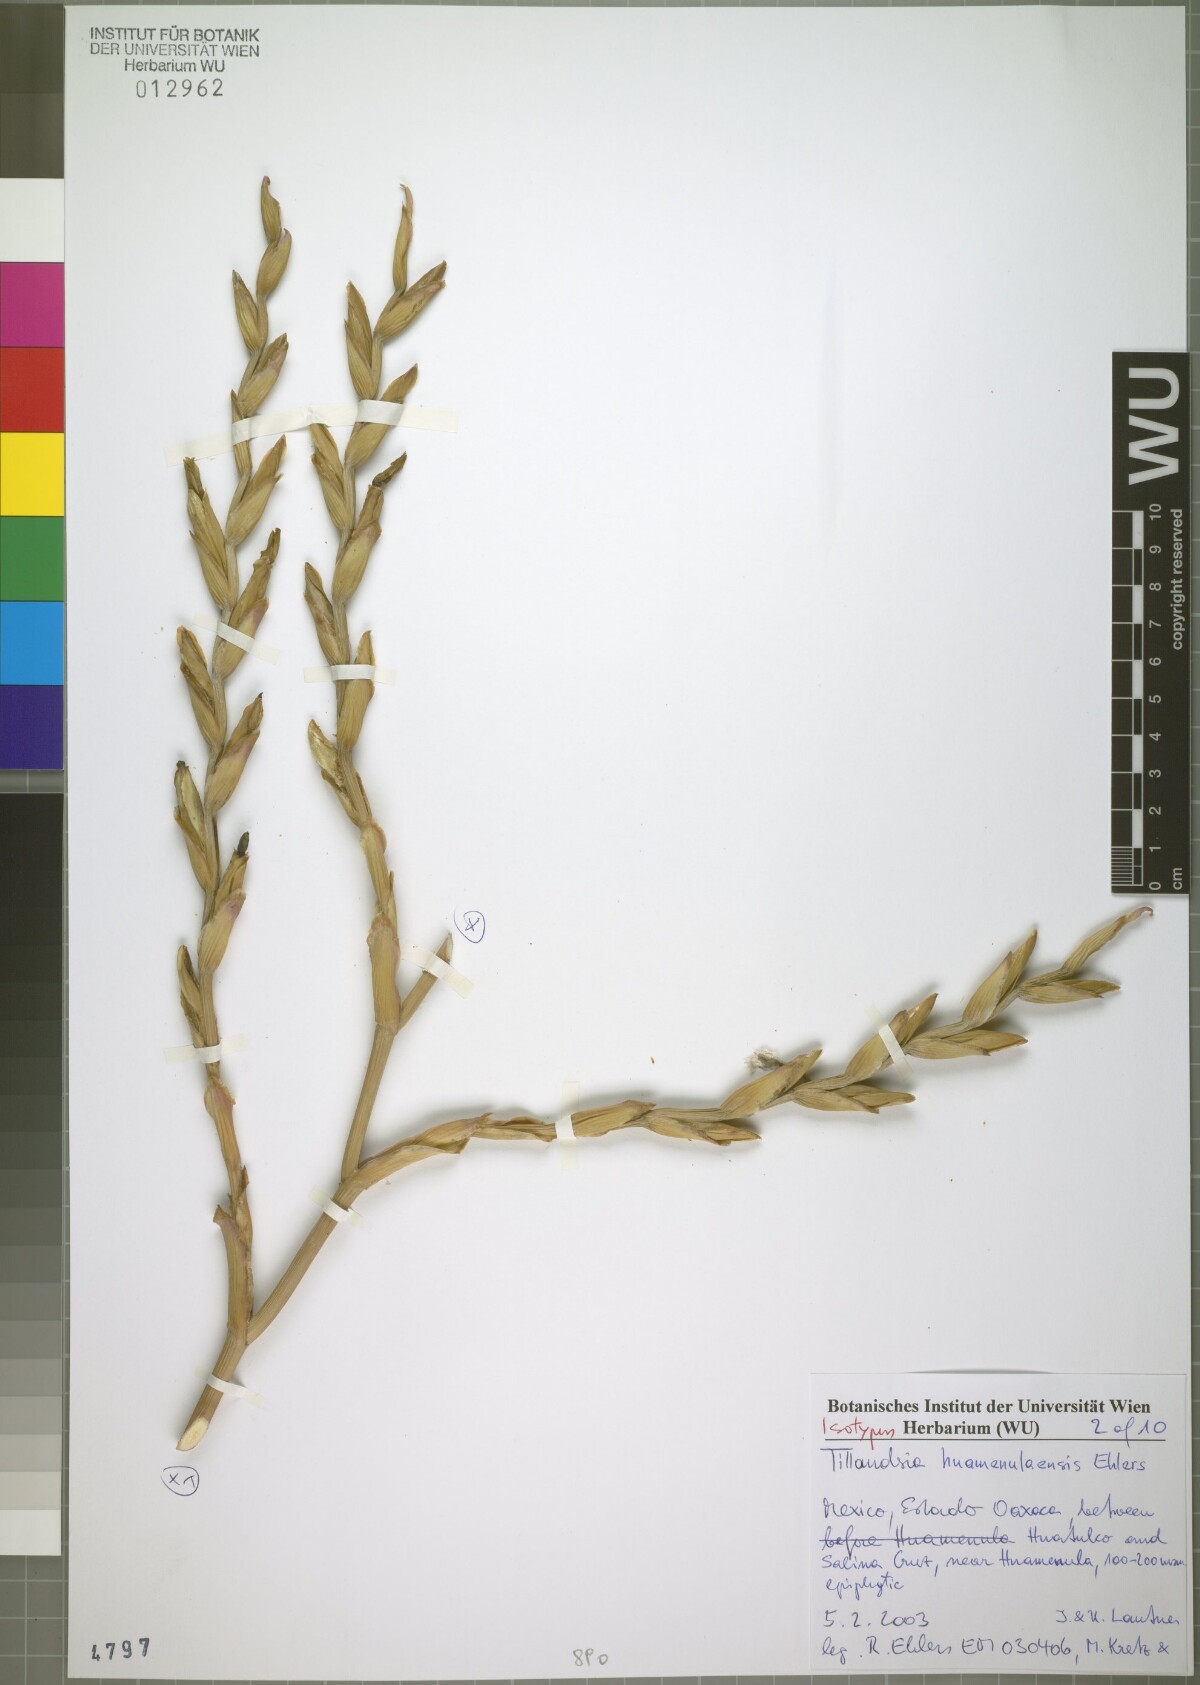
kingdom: Plantae
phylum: Tracheophyta
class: Liliopsida
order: Poales
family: Bromeliaceae
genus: Tillandsia
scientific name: Tillandsia huamenulaensis
